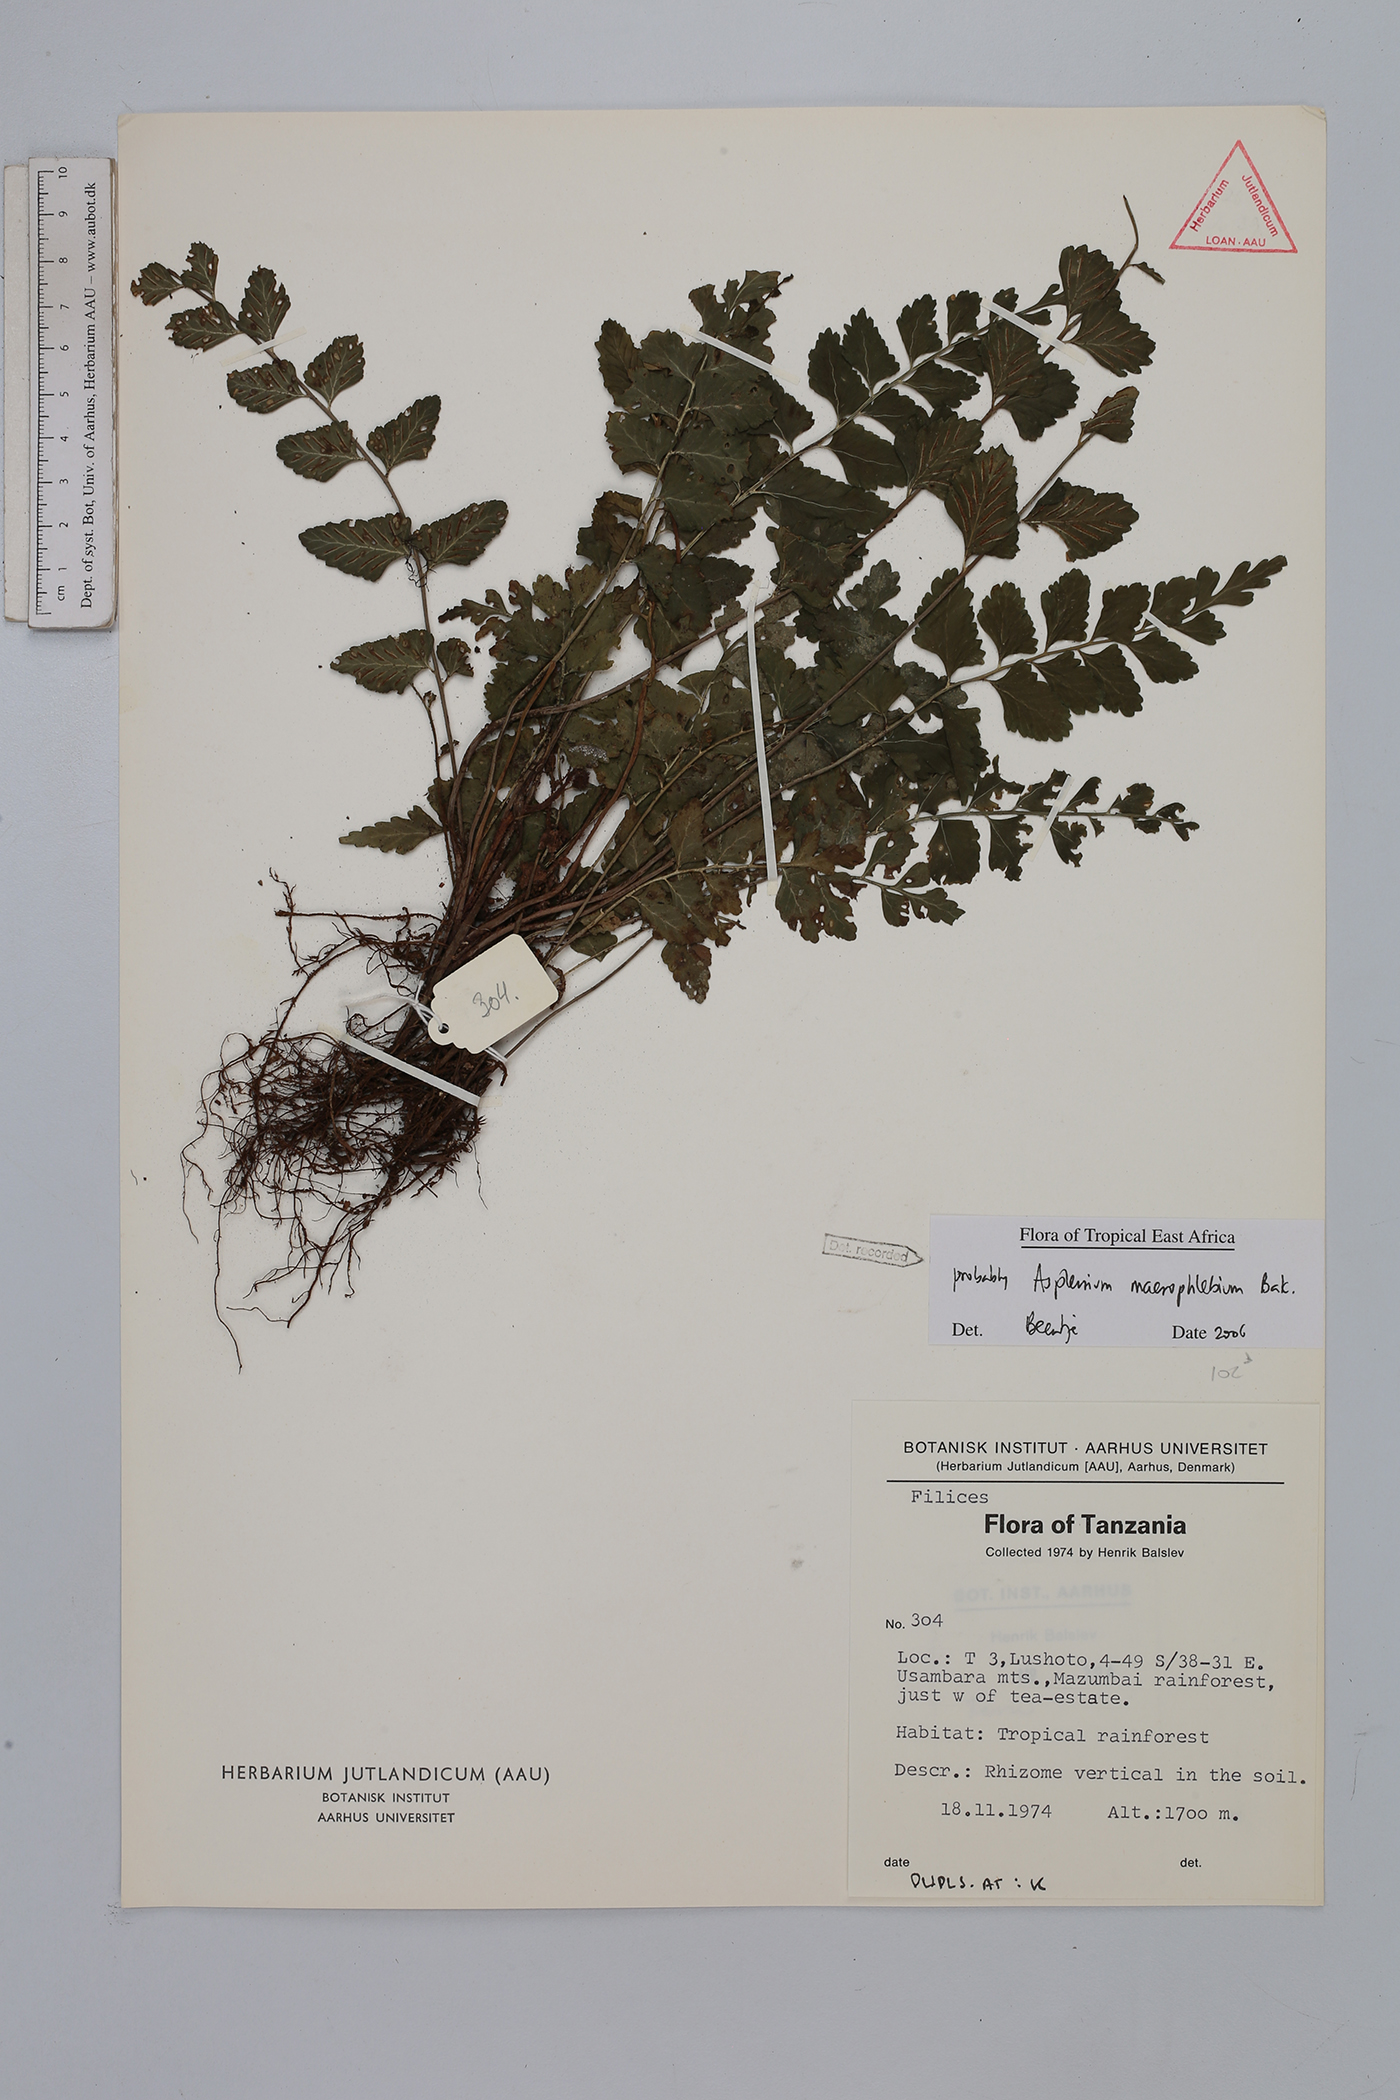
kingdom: Plantae
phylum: Tracheophyta
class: Polypodiopsida
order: Polypodiales
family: Aspleniaceae
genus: Asplenium
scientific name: Asplenium macrophlebium
